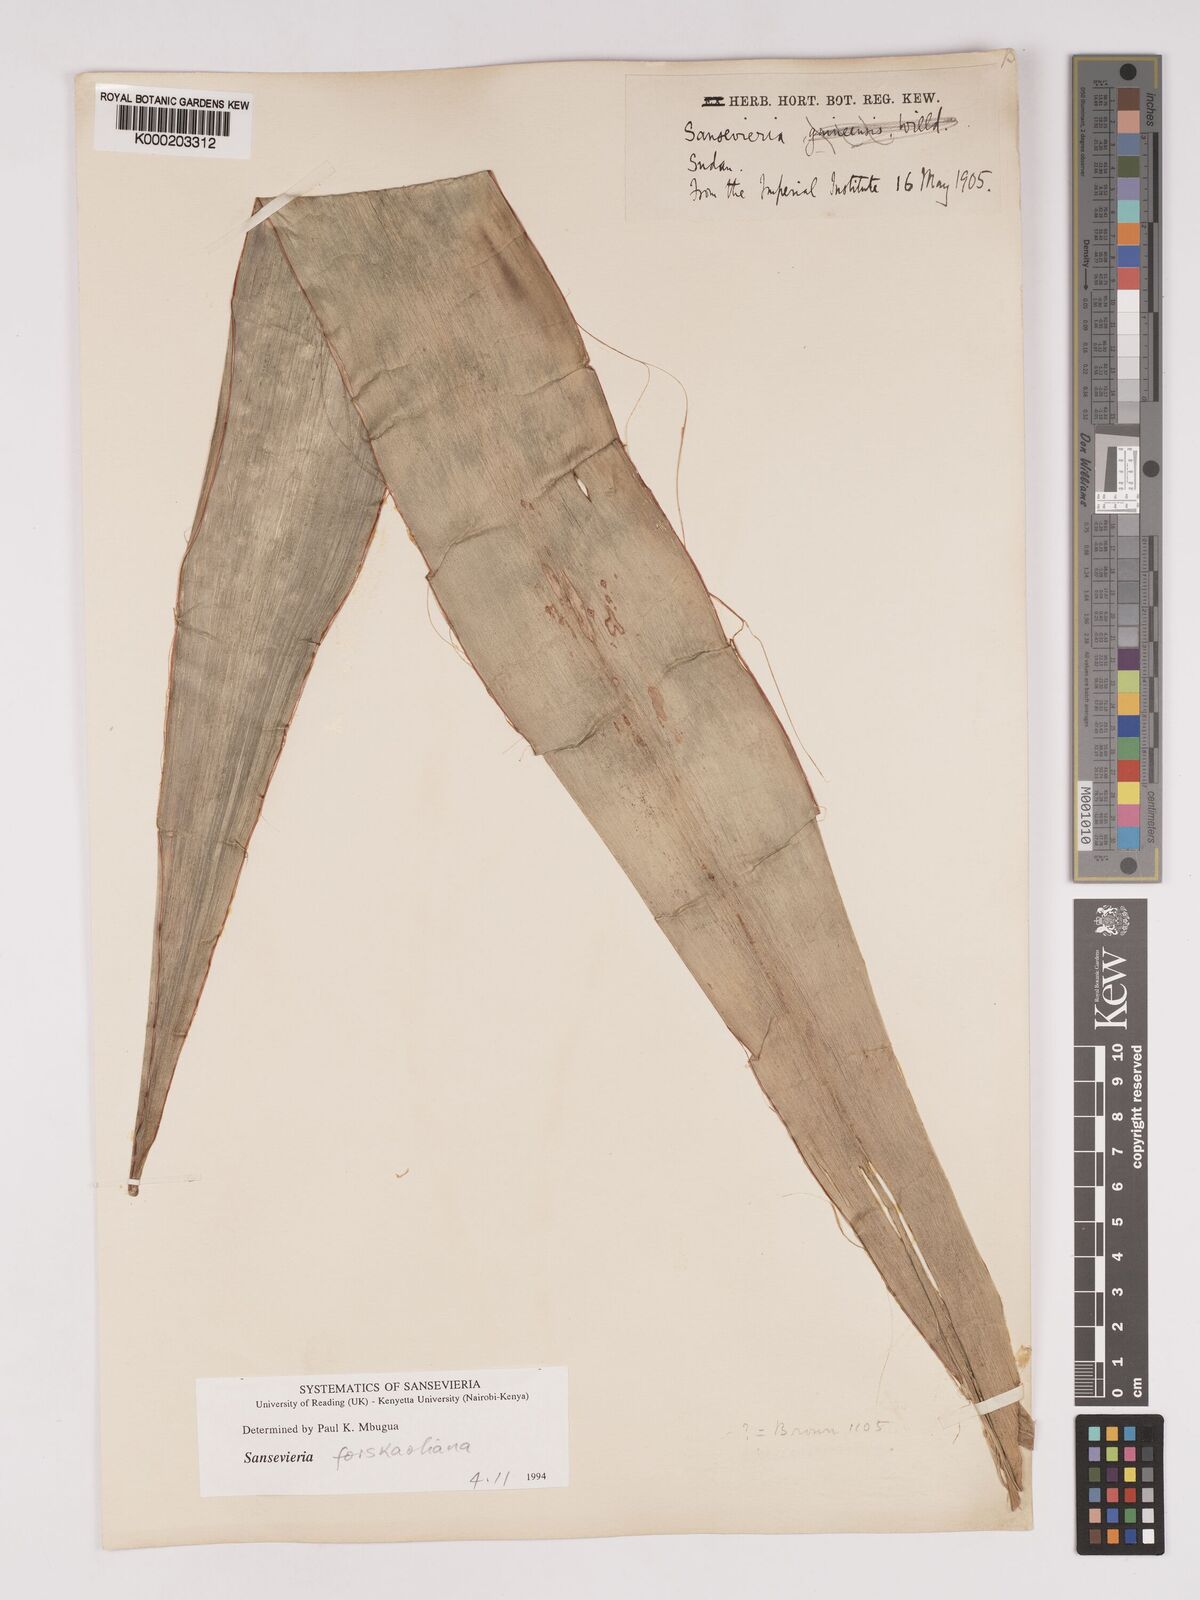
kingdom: Plantae
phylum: Tracheophyta
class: Liliopsida
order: Asparagales
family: Asparagaceae
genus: Dracaena
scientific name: Dracaena
